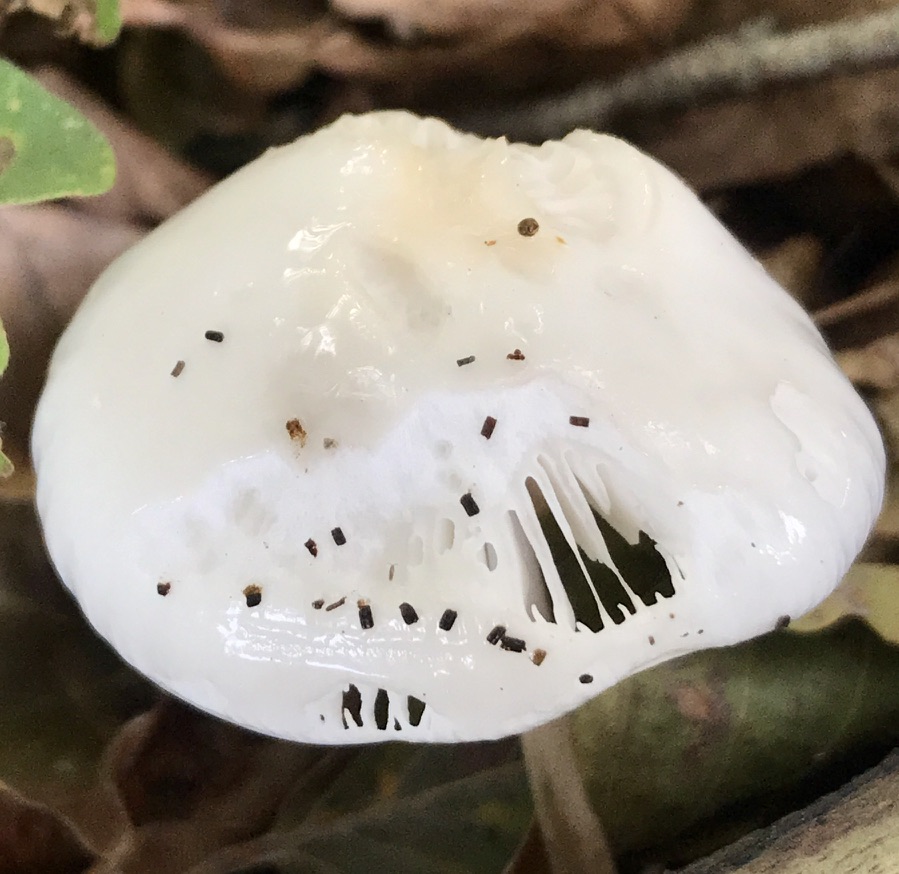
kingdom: Fungi
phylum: Basidiomycota
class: Agaricomycetes
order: Agaricales
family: Physalacriaceae
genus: Mucidula
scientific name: Mucidula mucida
